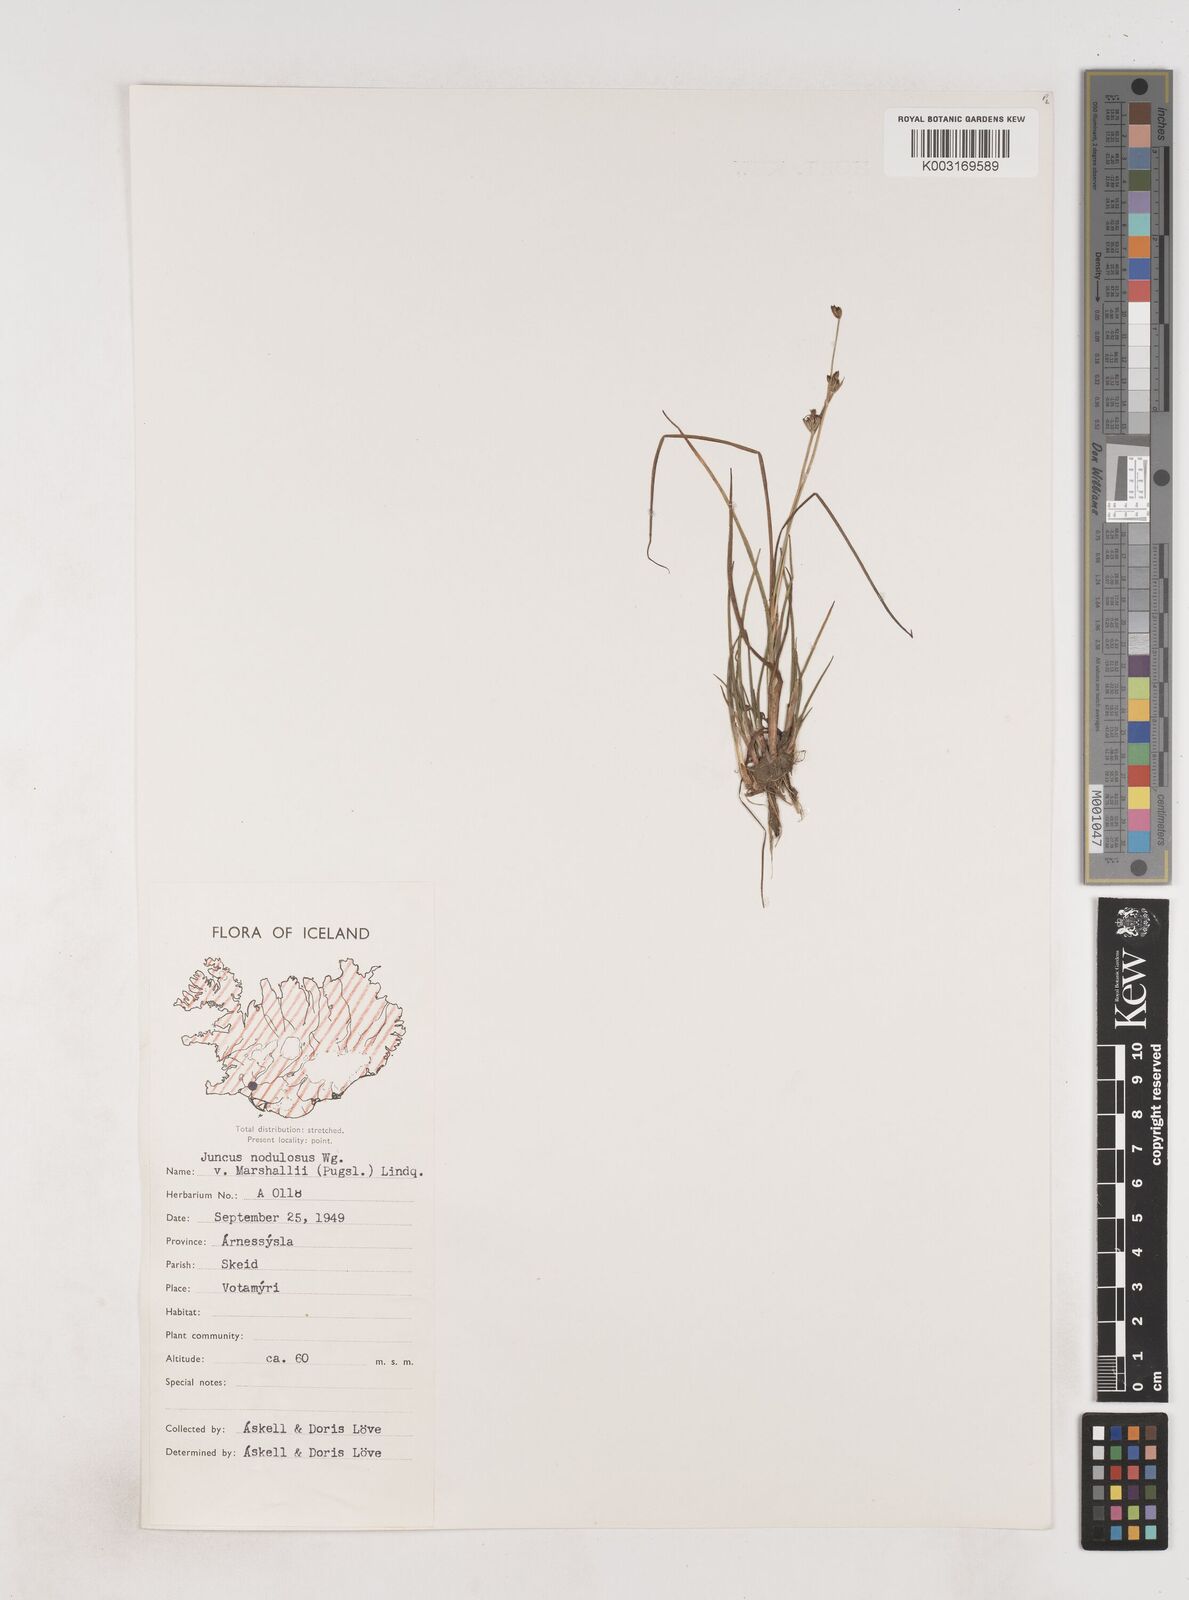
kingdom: Plantae
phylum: Tracheophyta
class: Liliopsida
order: Poales
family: Juncaceae
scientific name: Juncaceae
